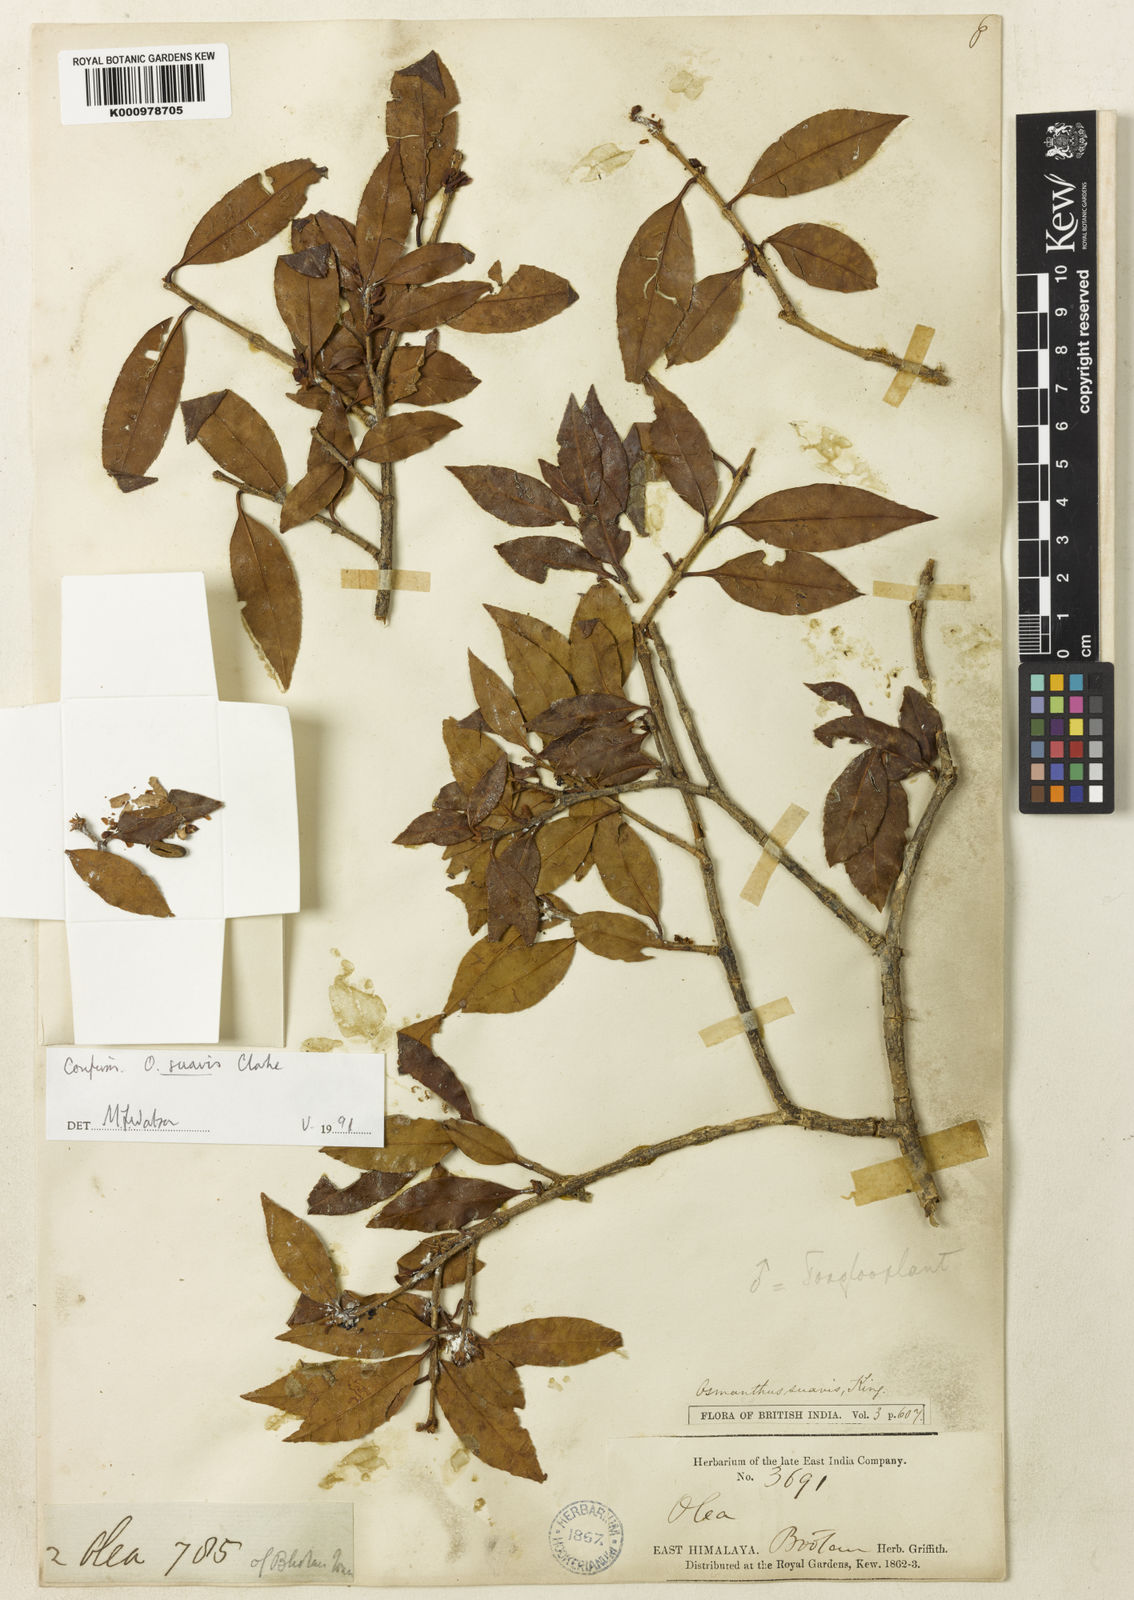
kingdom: Plantae
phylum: Tracheophyta
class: Magnoliopsida
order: Lamiales
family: Oleaceae
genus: Osmanthus
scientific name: Osmanthus suavis
